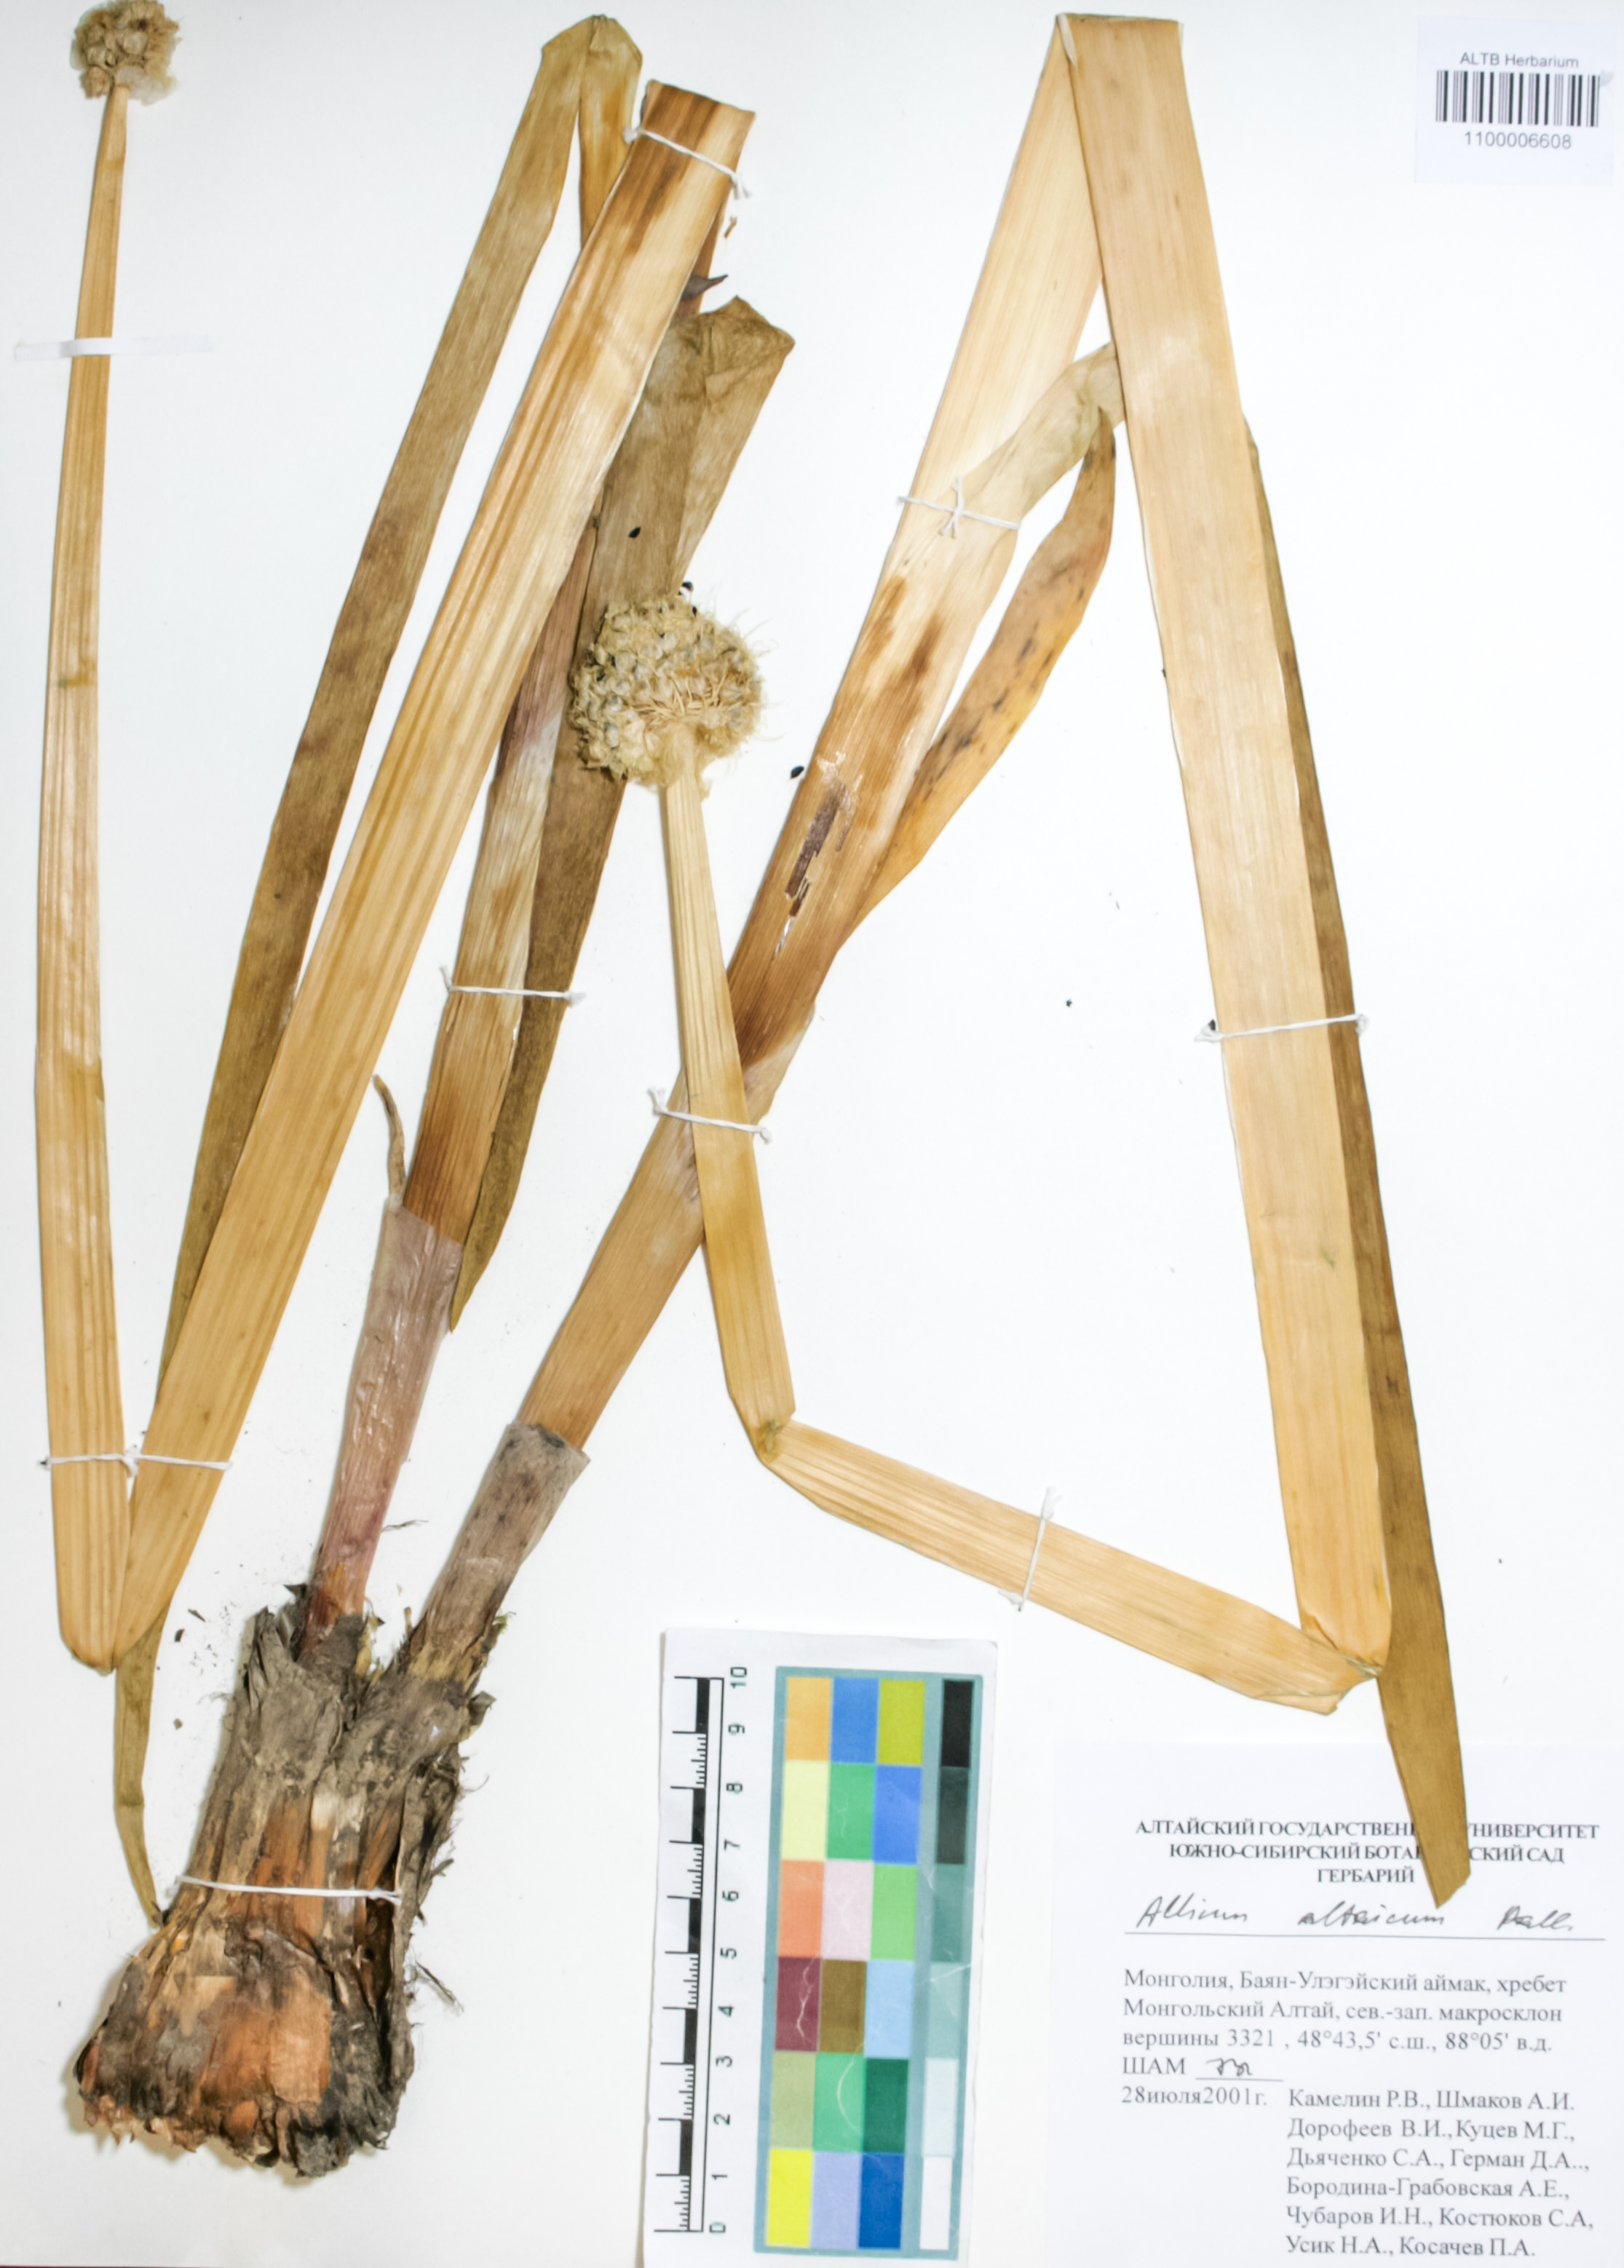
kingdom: Plantae
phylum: Tracheophyta
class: Liliopsida
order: Asparagales
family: Amaryllidaceae
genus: Allium
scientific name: Allium altaicum
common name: Altai onion
